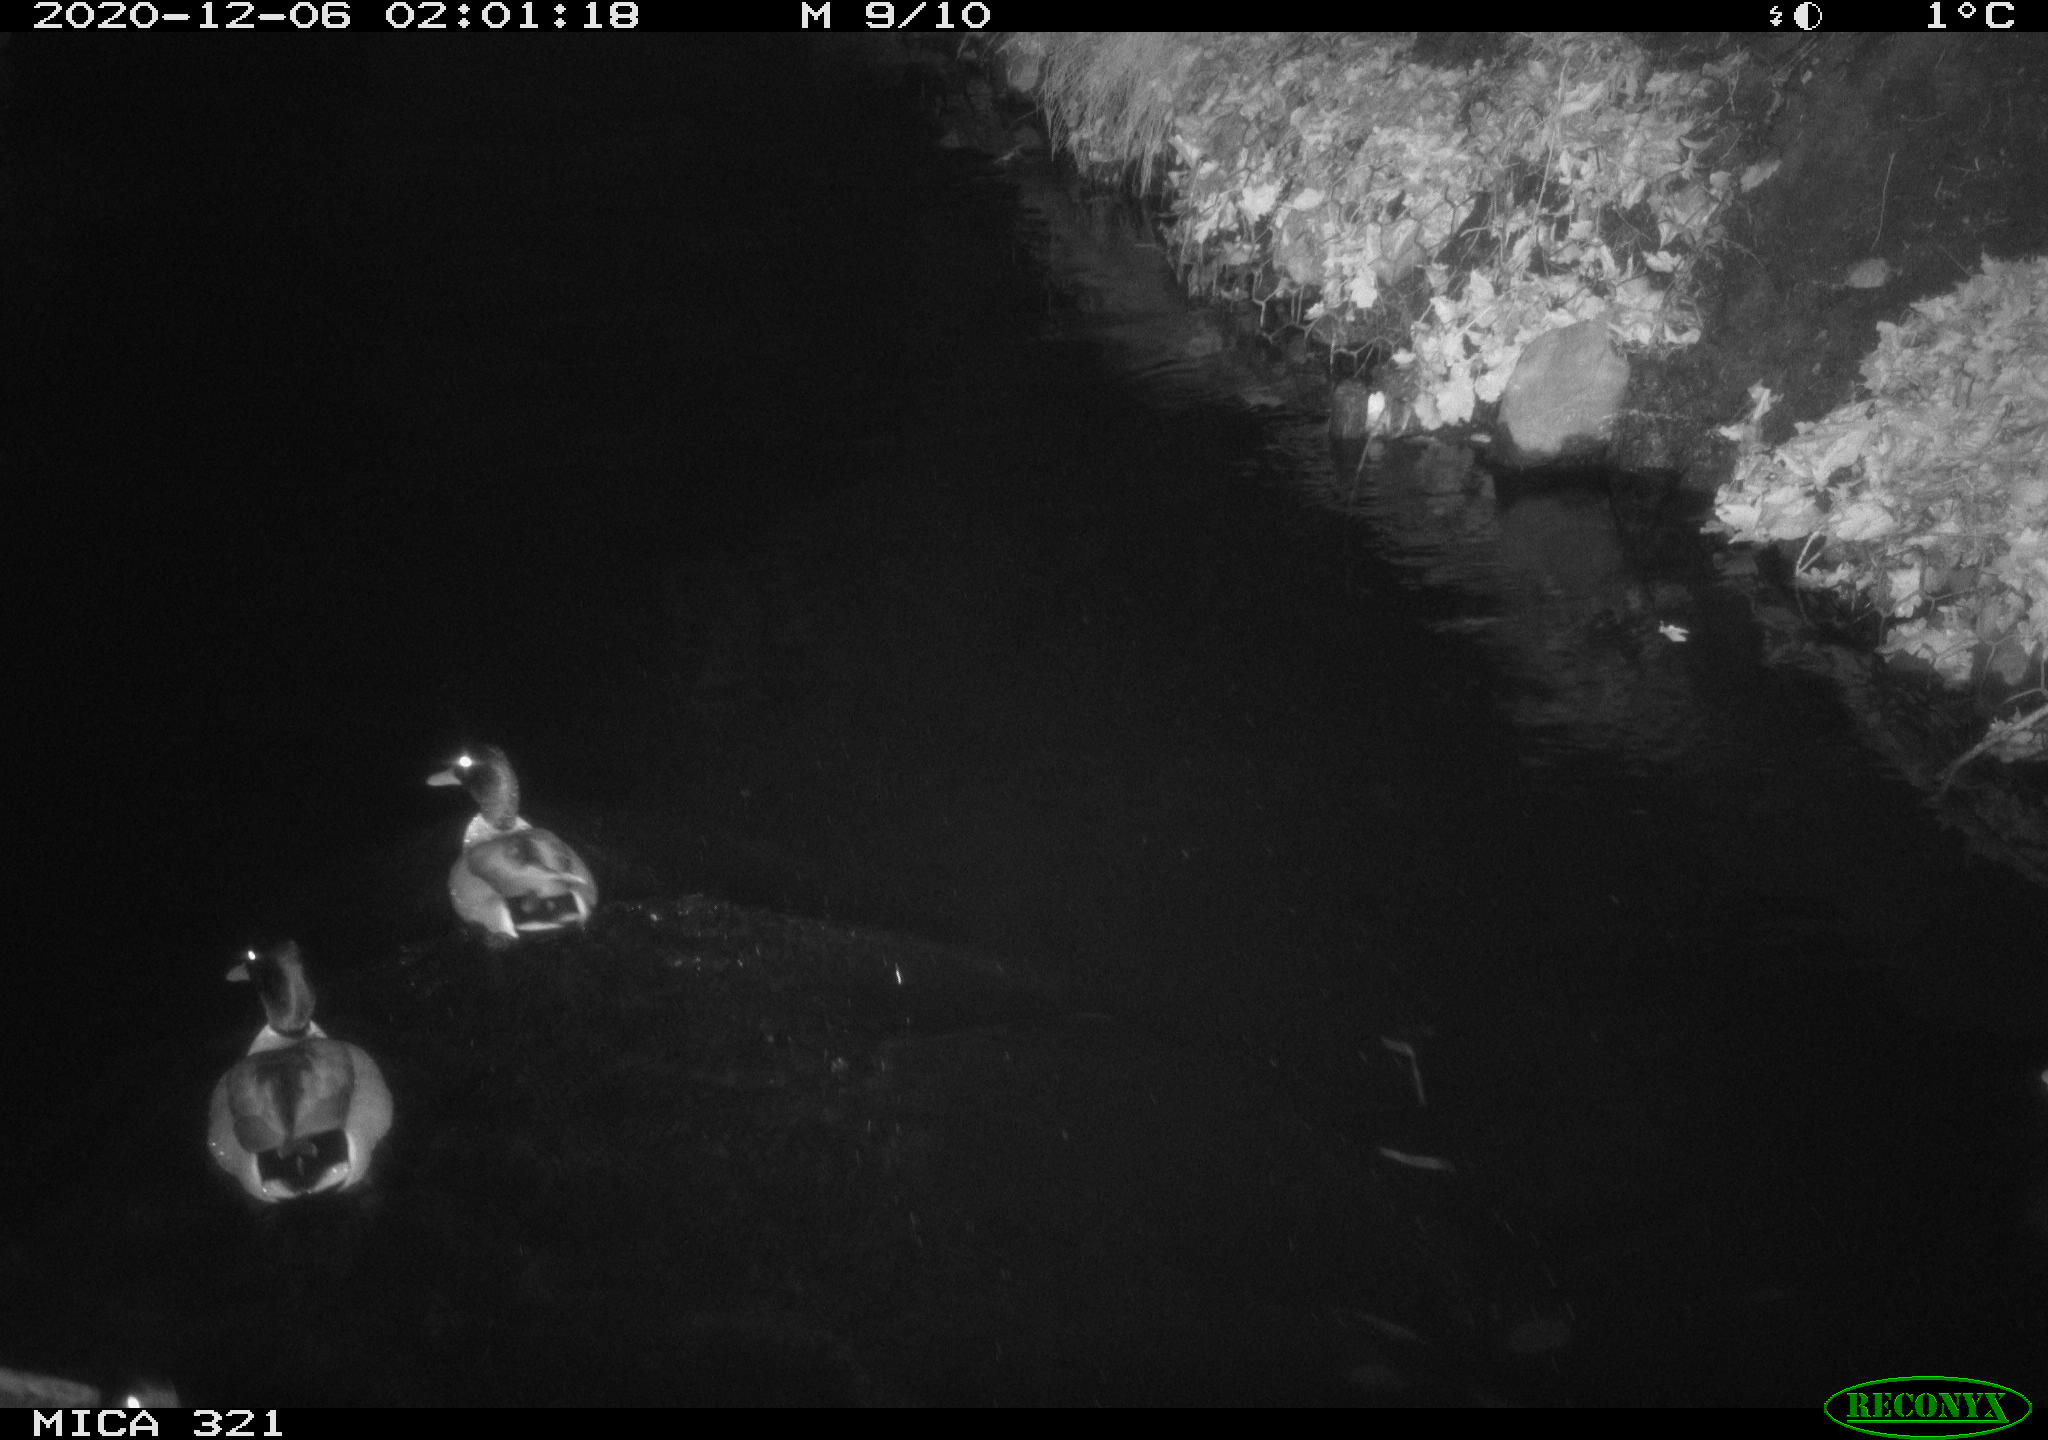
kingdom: Animalia
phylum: Chordata
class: Aves
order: Anseriformes
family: Anatidae
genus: Anas
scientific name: Anas platyrhynchos
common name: Mallard
